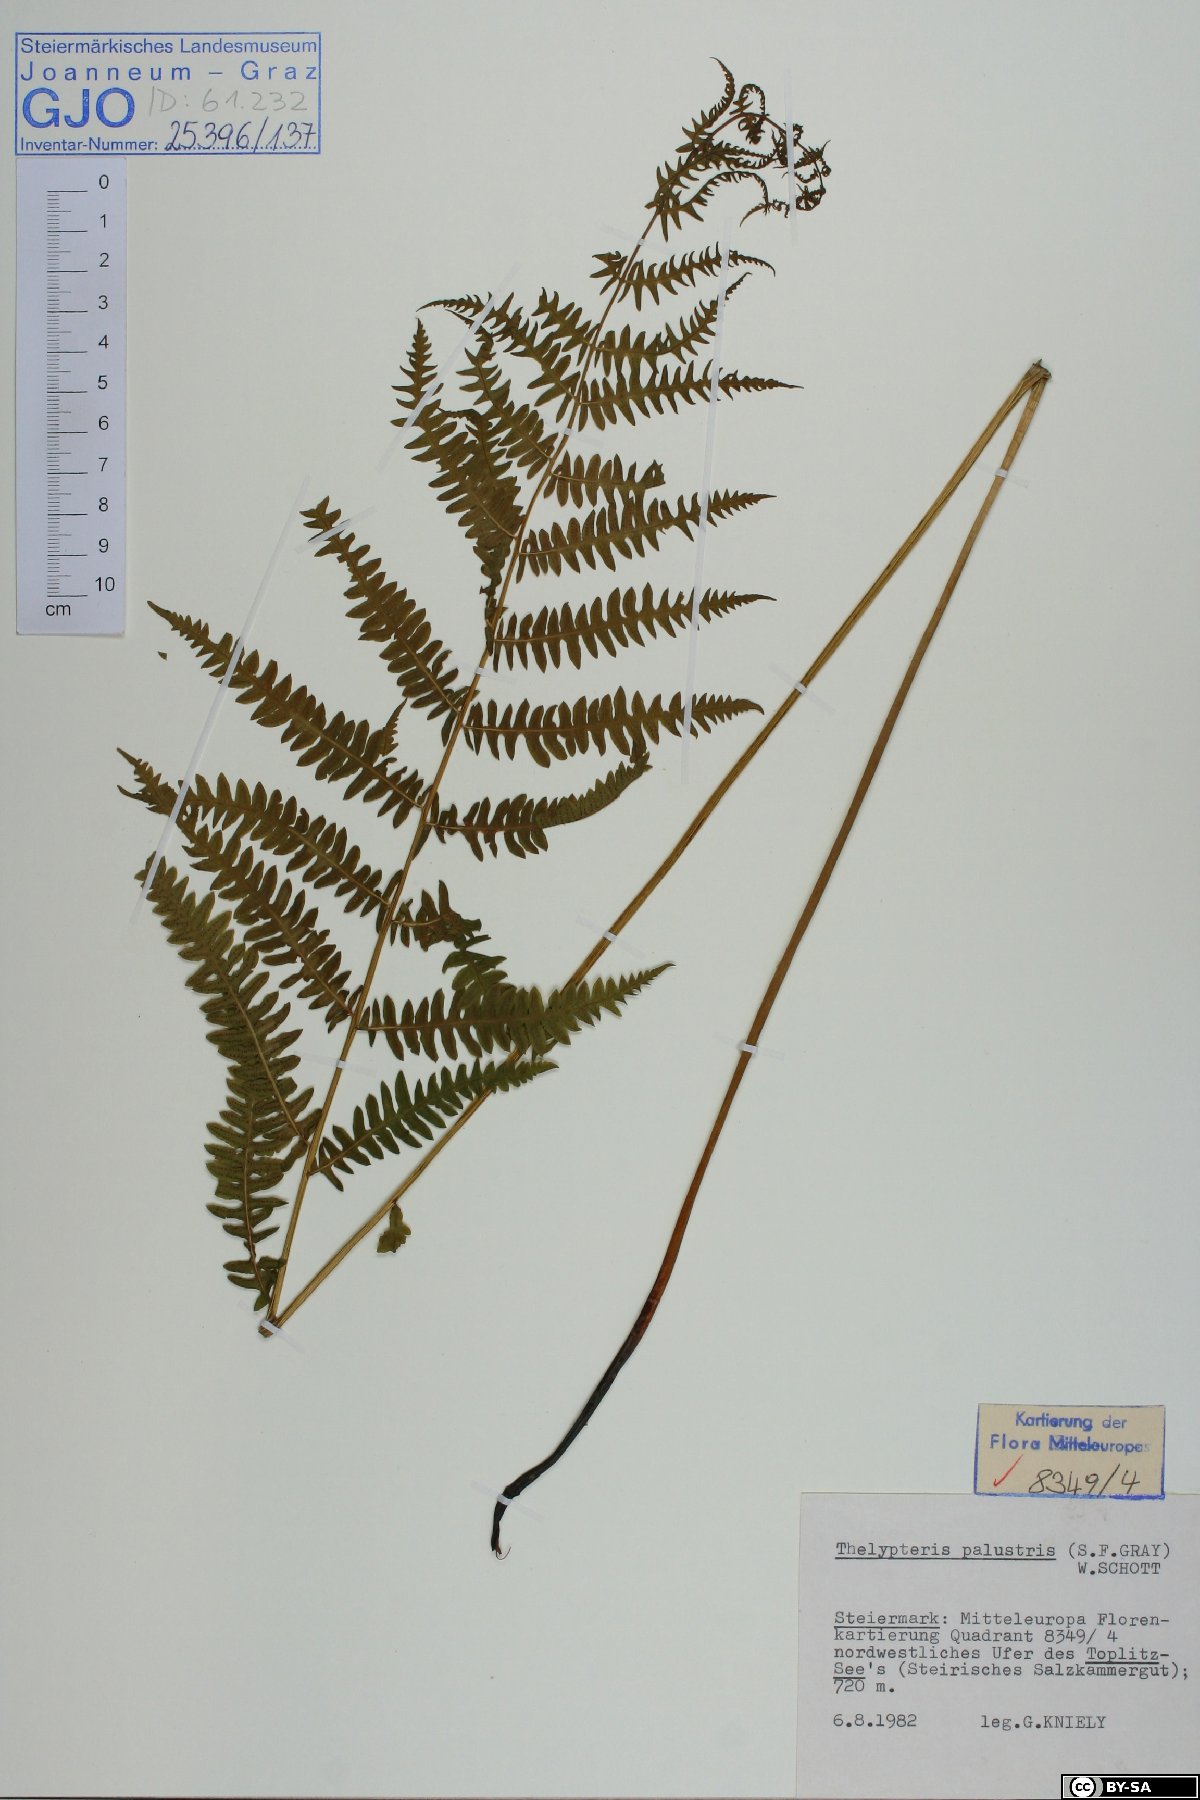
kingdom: Plantae
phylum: Tracheophyta
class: Polypodiopsida
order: Polypodiales
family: Thelypteridaceae
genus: Thelypteris
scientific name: Thelypteris palustris
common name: Marsh fern
